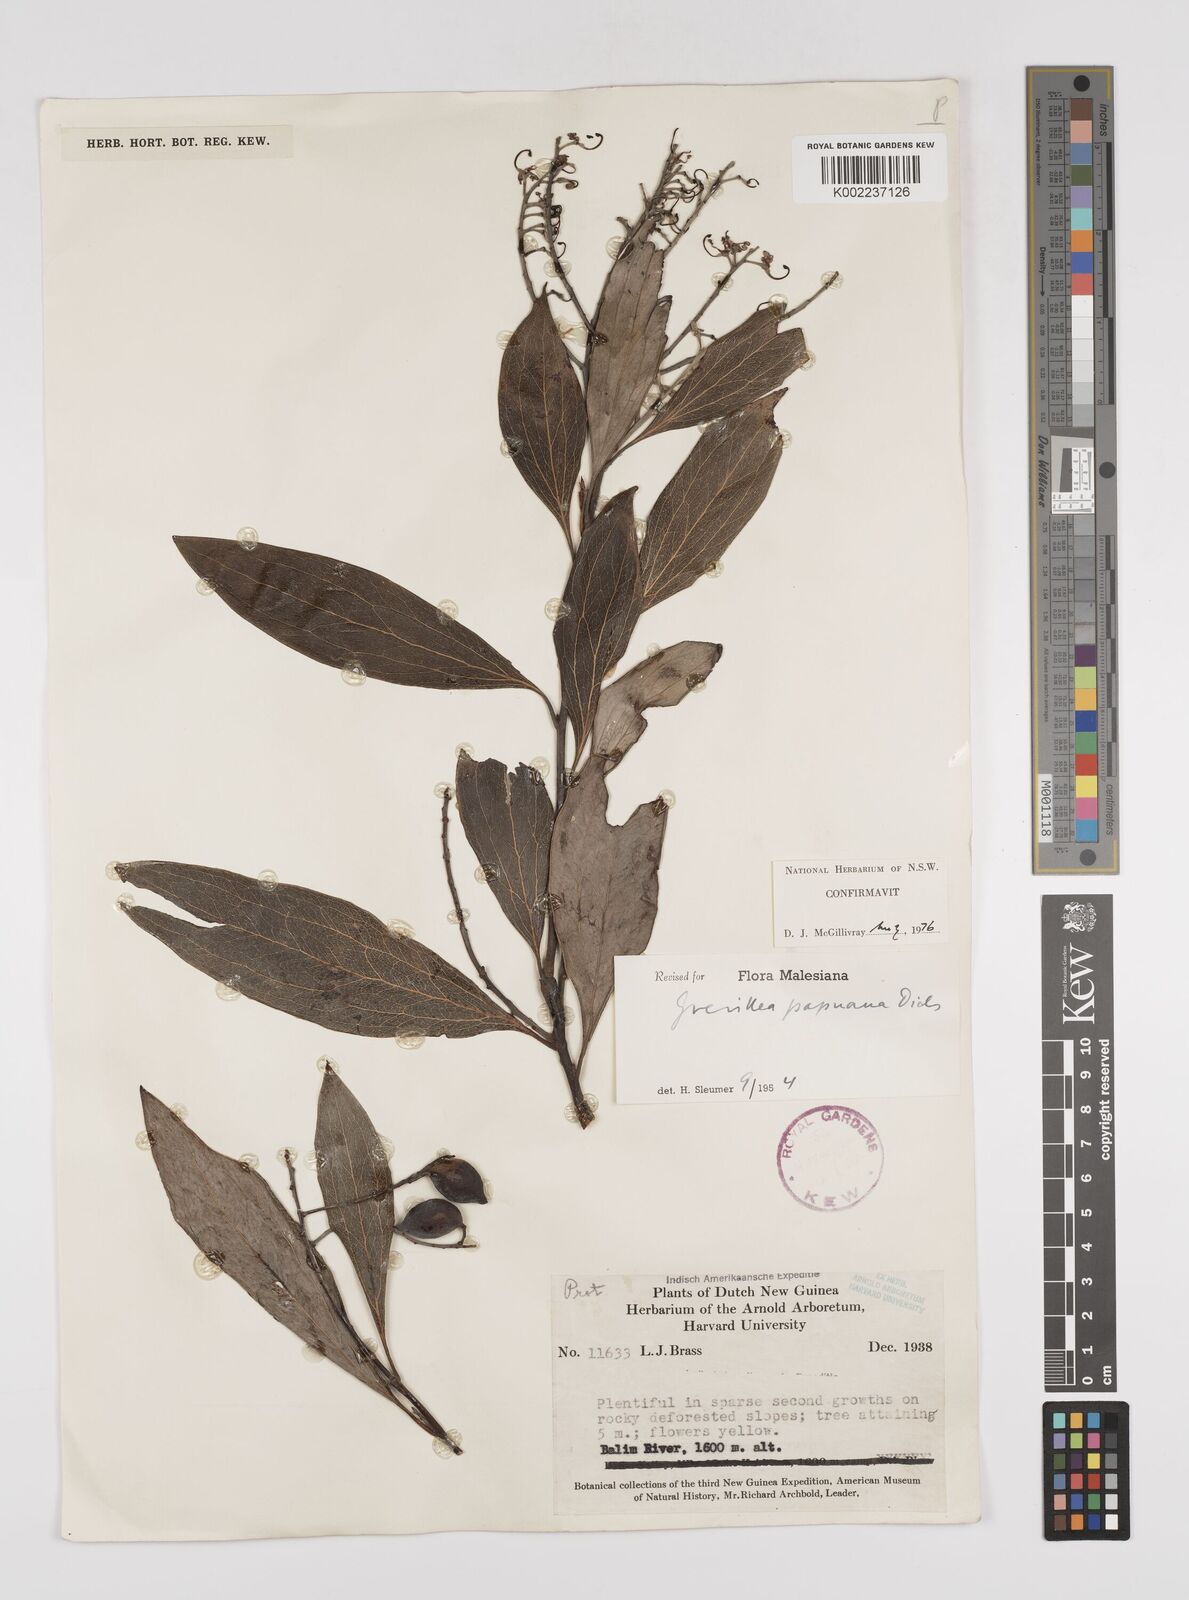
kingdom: Plantae
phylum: Tracheophyta
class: Magnoliopsida
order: Proteales
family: Proteaceae
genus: Grevillea
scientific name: Grevillea papuana
